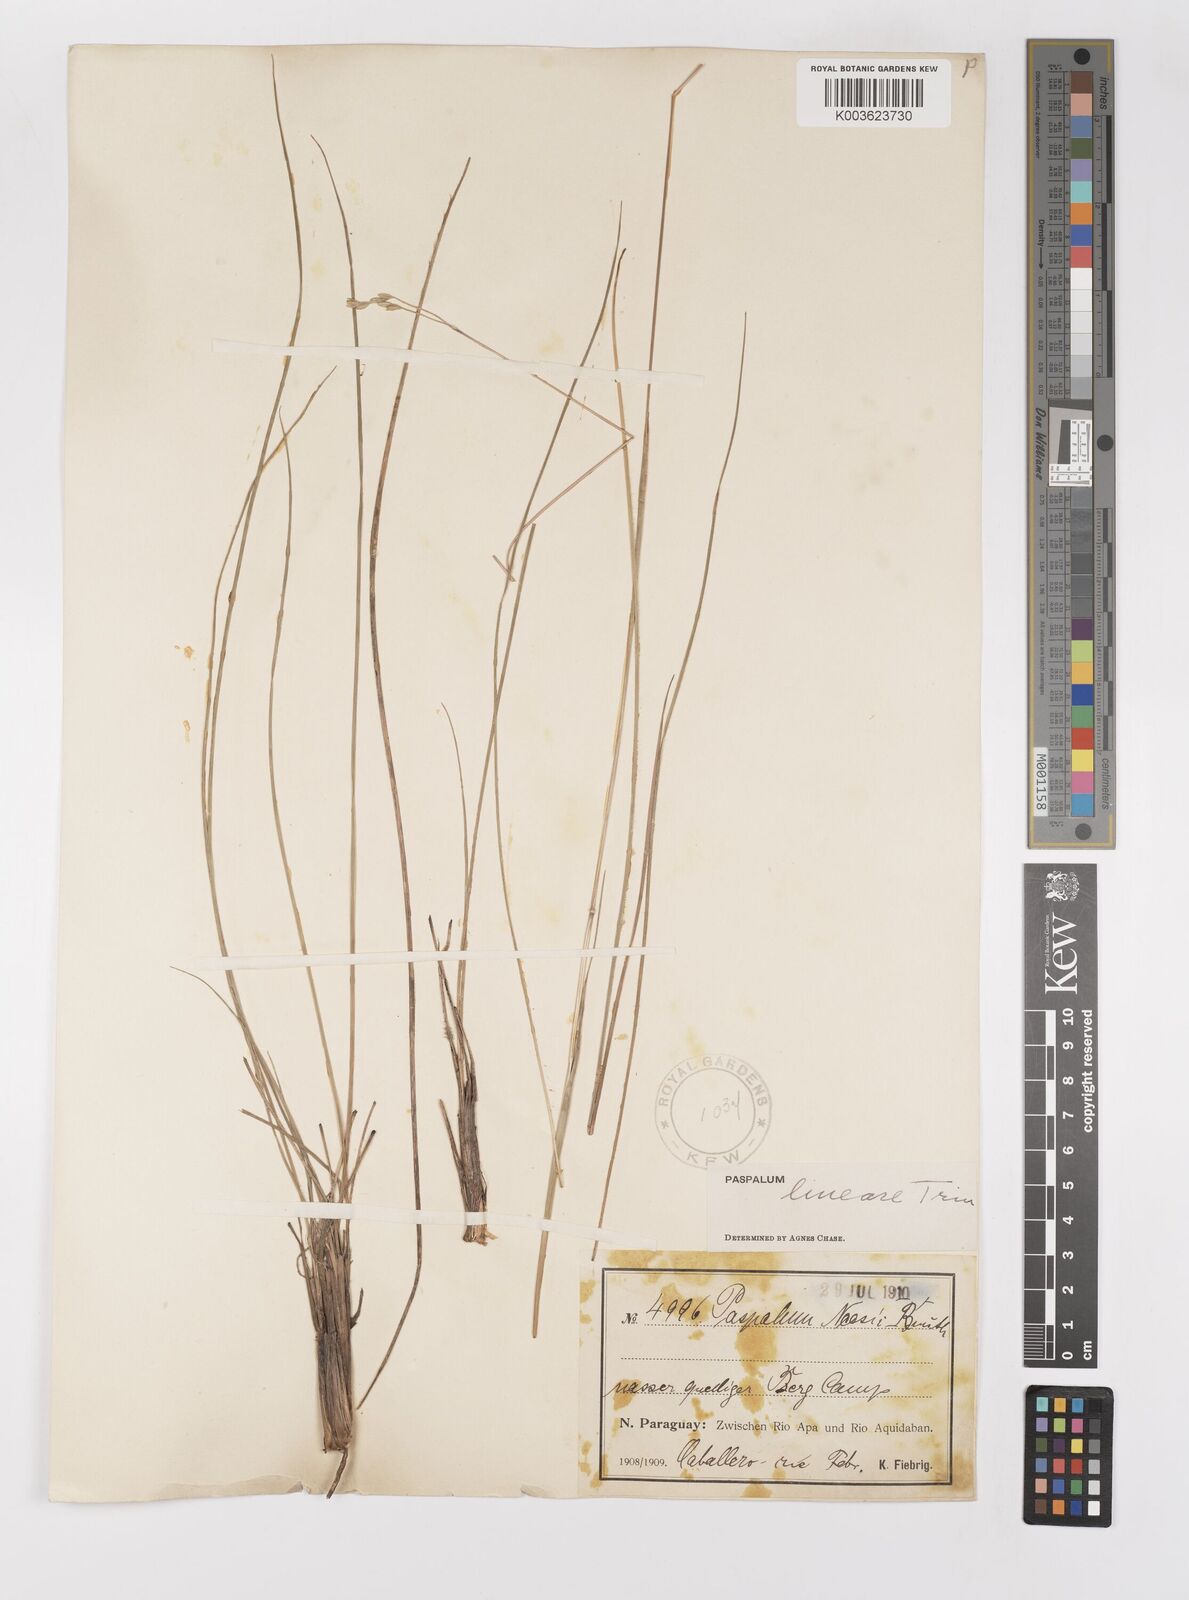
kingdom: Plantae
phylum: Tracheophyta
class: Liliopsida
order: Poales
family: Poaceae
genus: Paspalum
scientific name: Paspalum lineare
